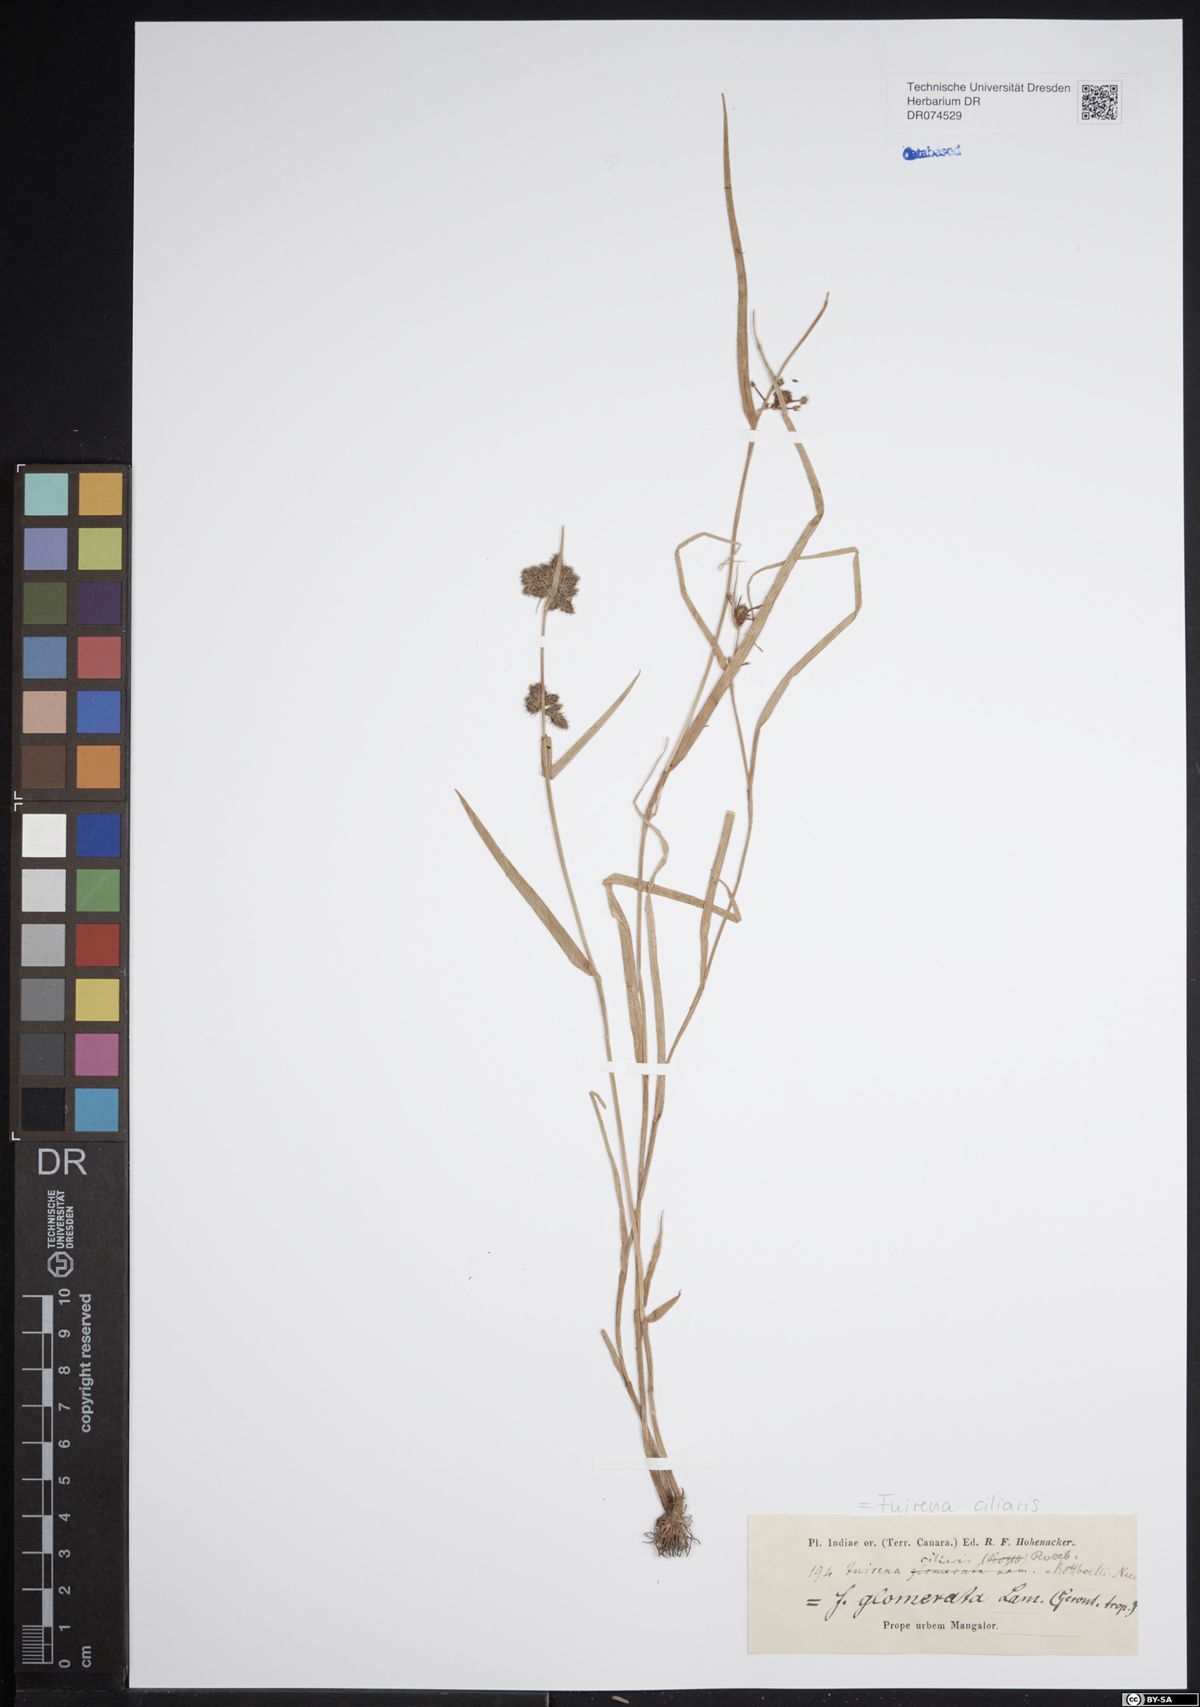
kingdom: Plantae
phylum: Tracheophyta
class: Liliopsida
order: Poales
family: Cyperaceae
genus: Fuirena
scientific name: Fuirena umbellata
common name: Yefen
